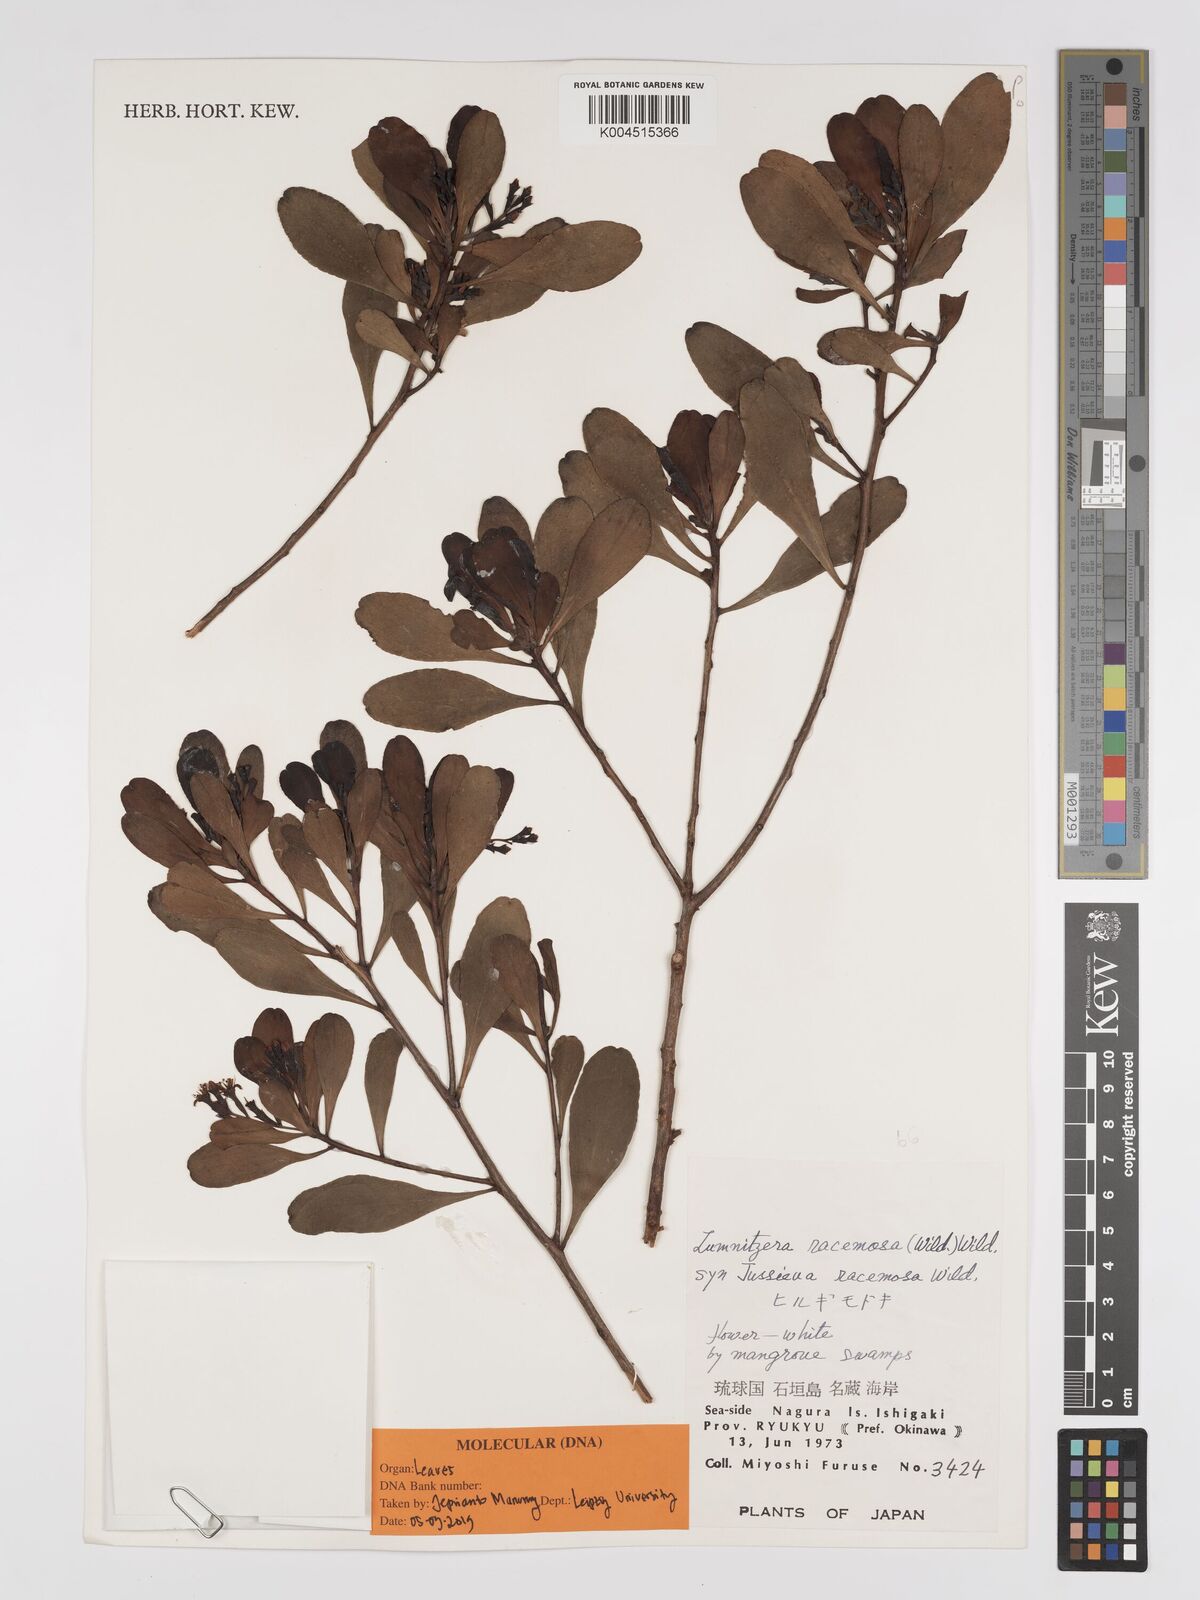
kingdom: Plantae
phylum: Tracheophyta
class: Magnoliopsida
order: Myrtales
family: Combretaceae
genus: Lumnitzera
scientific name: Lumnitzera racemosa
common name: White-flowered black mangrove
